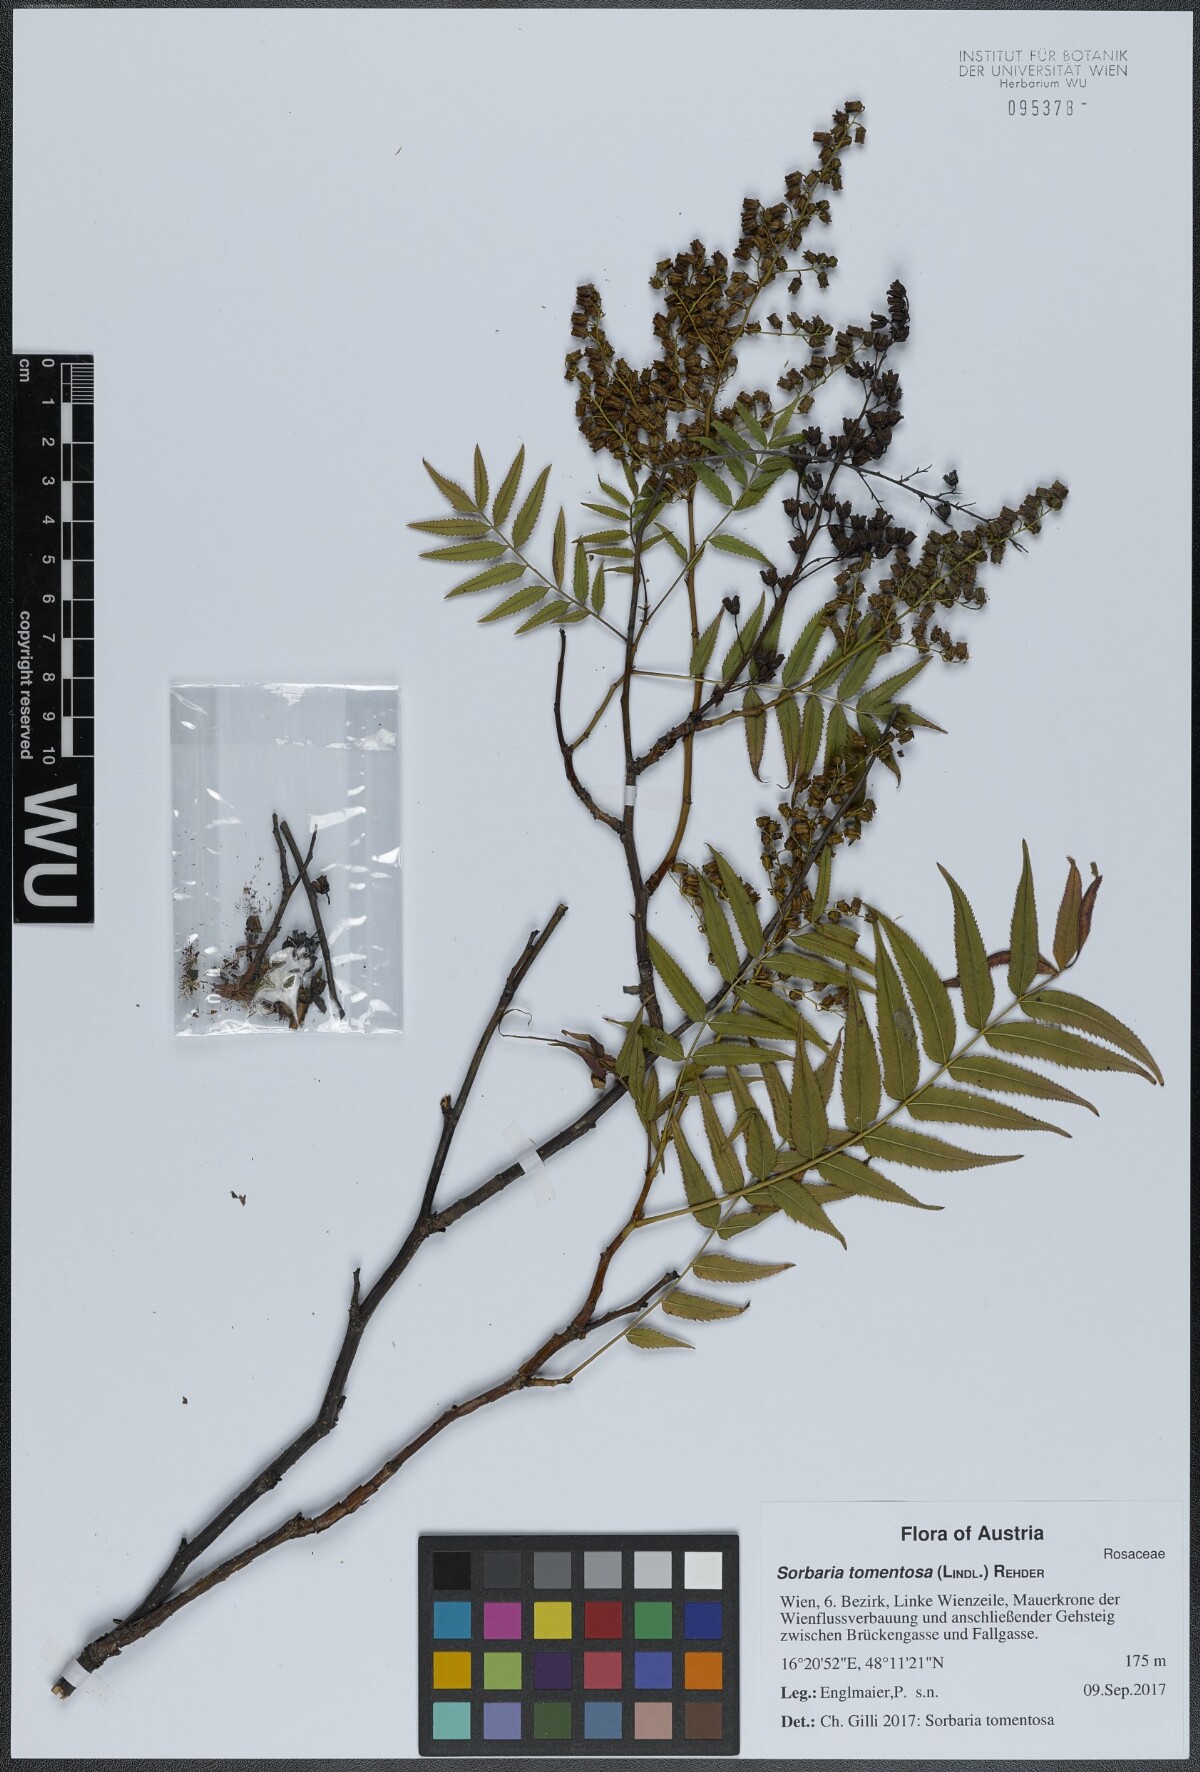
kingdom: Plantae
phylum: Tracheophyta
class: Magnoliopsida
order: Rosales
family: Rosaceae
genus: Sorbaria
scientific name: Sorbaria tomentosa
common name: Himalayan sorbaria
